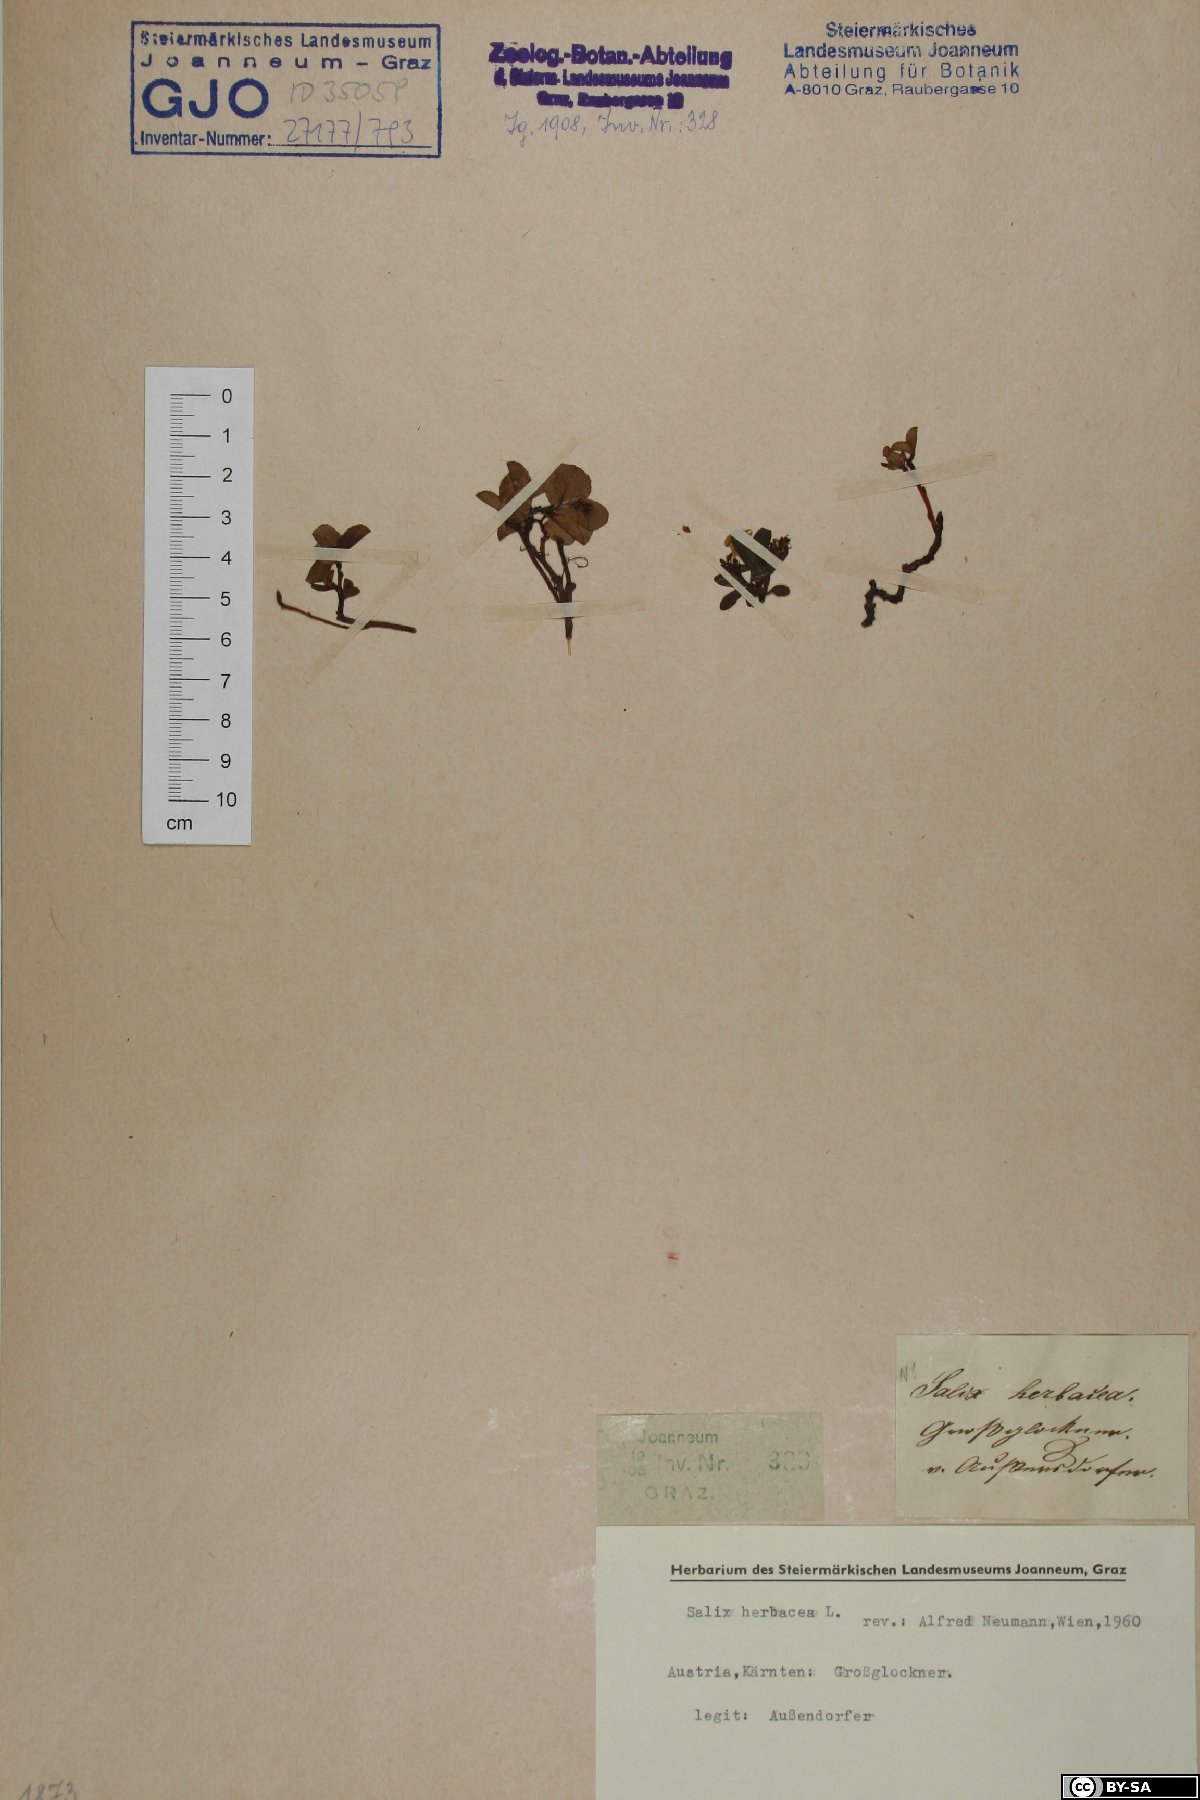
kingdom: Plantae
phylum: Tracheophyta
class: Magnoliopsida
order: Malpighiales
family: Salicaceae
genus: Salix
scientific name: Salix herbacea
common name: Dwarf willow
